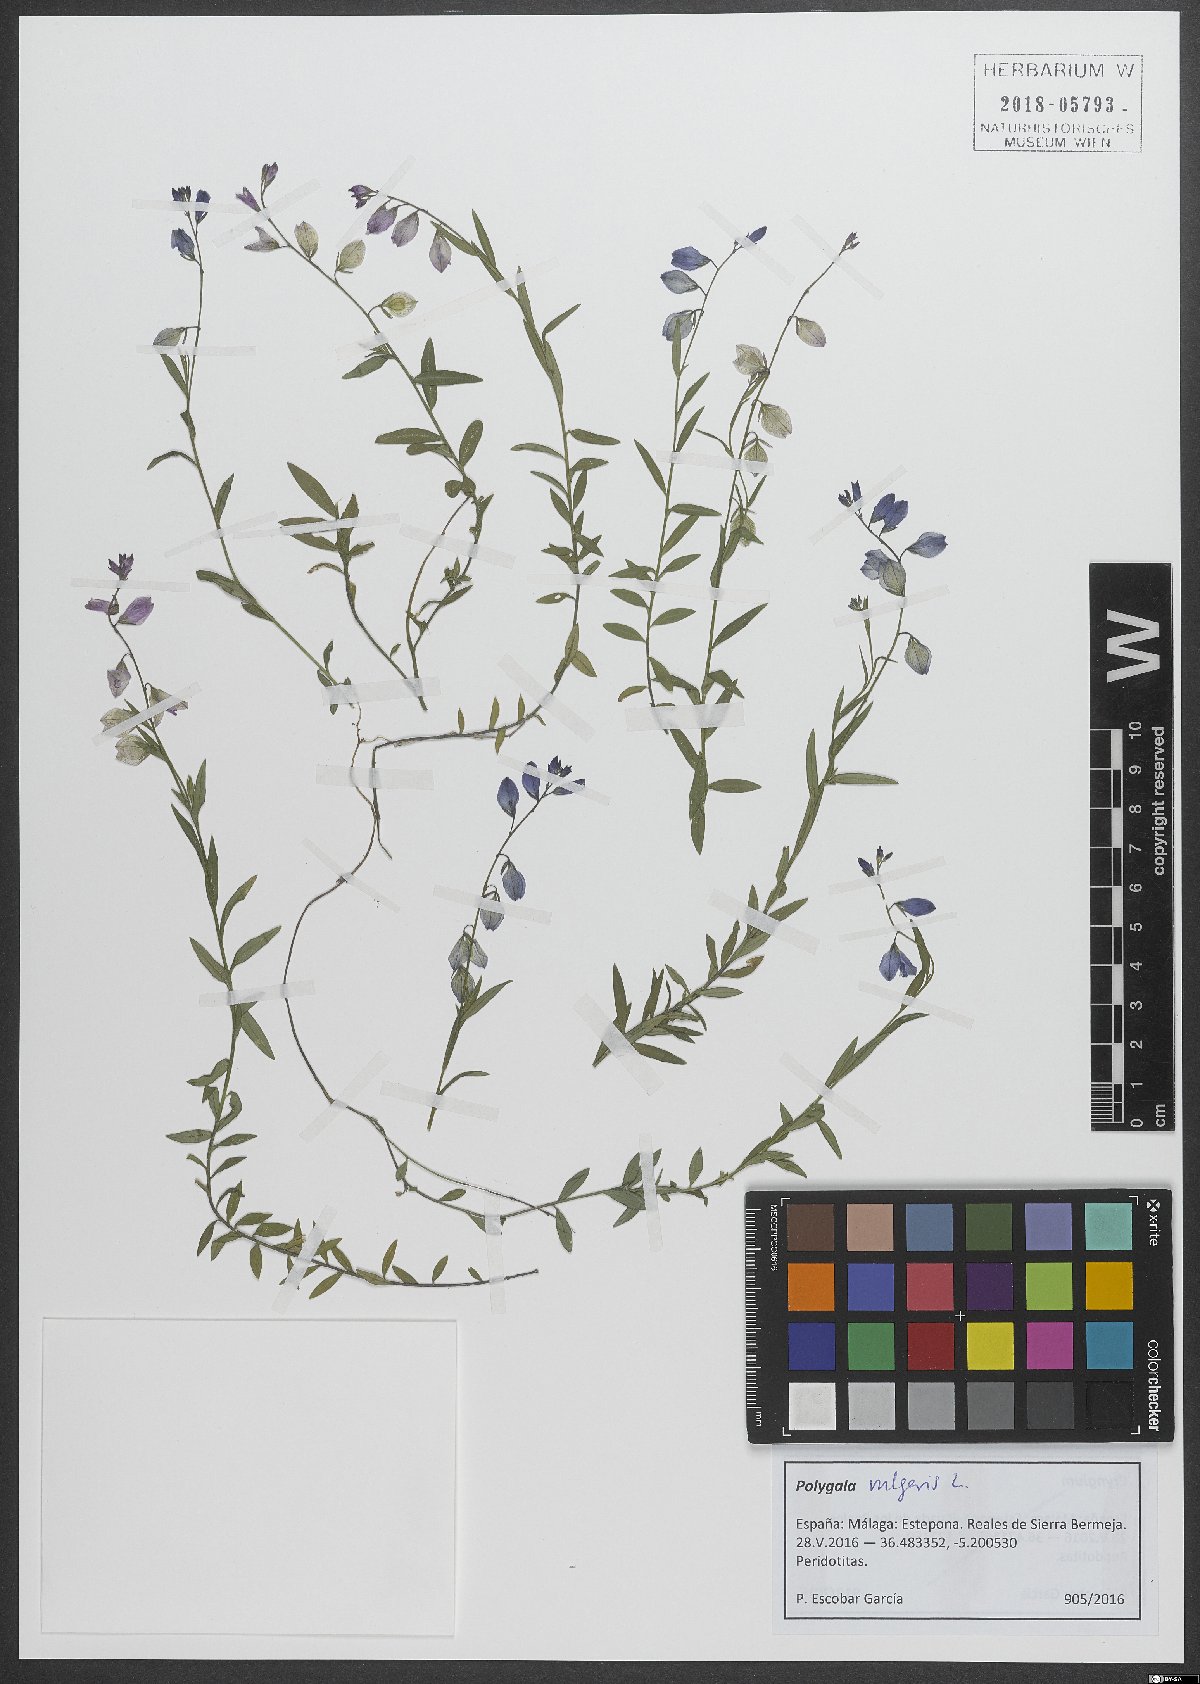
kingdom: Plantae
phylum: Tracheophyta
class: Magnoliopsida
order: Fabales
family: Polygalaceae
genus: Polygala
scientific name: Polygala vulgaris
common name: Common milkwort
